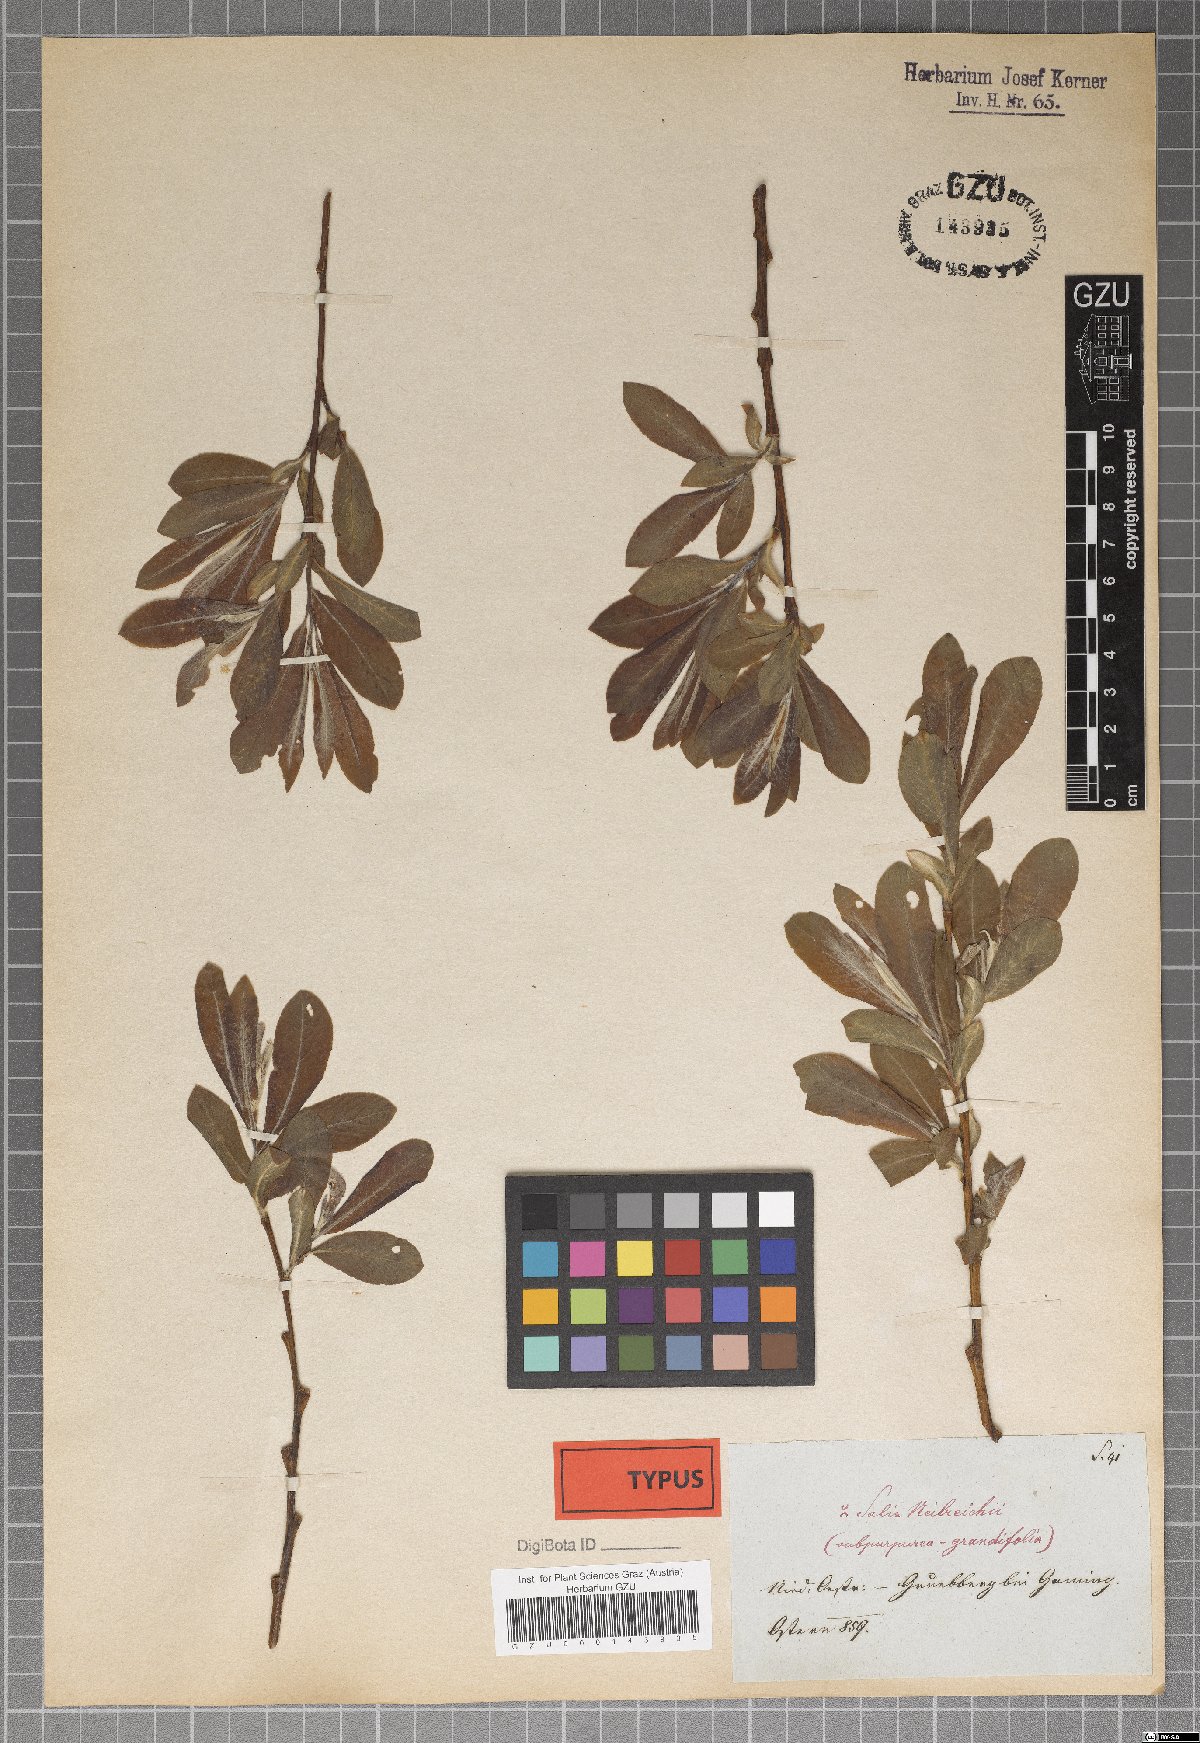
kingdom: Plantae
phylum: Tracheophyta
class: Magnoliopsida
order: Malpighiales
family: Salicaceae
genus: Salix
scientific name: Salix purpurea
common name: Purple willow
